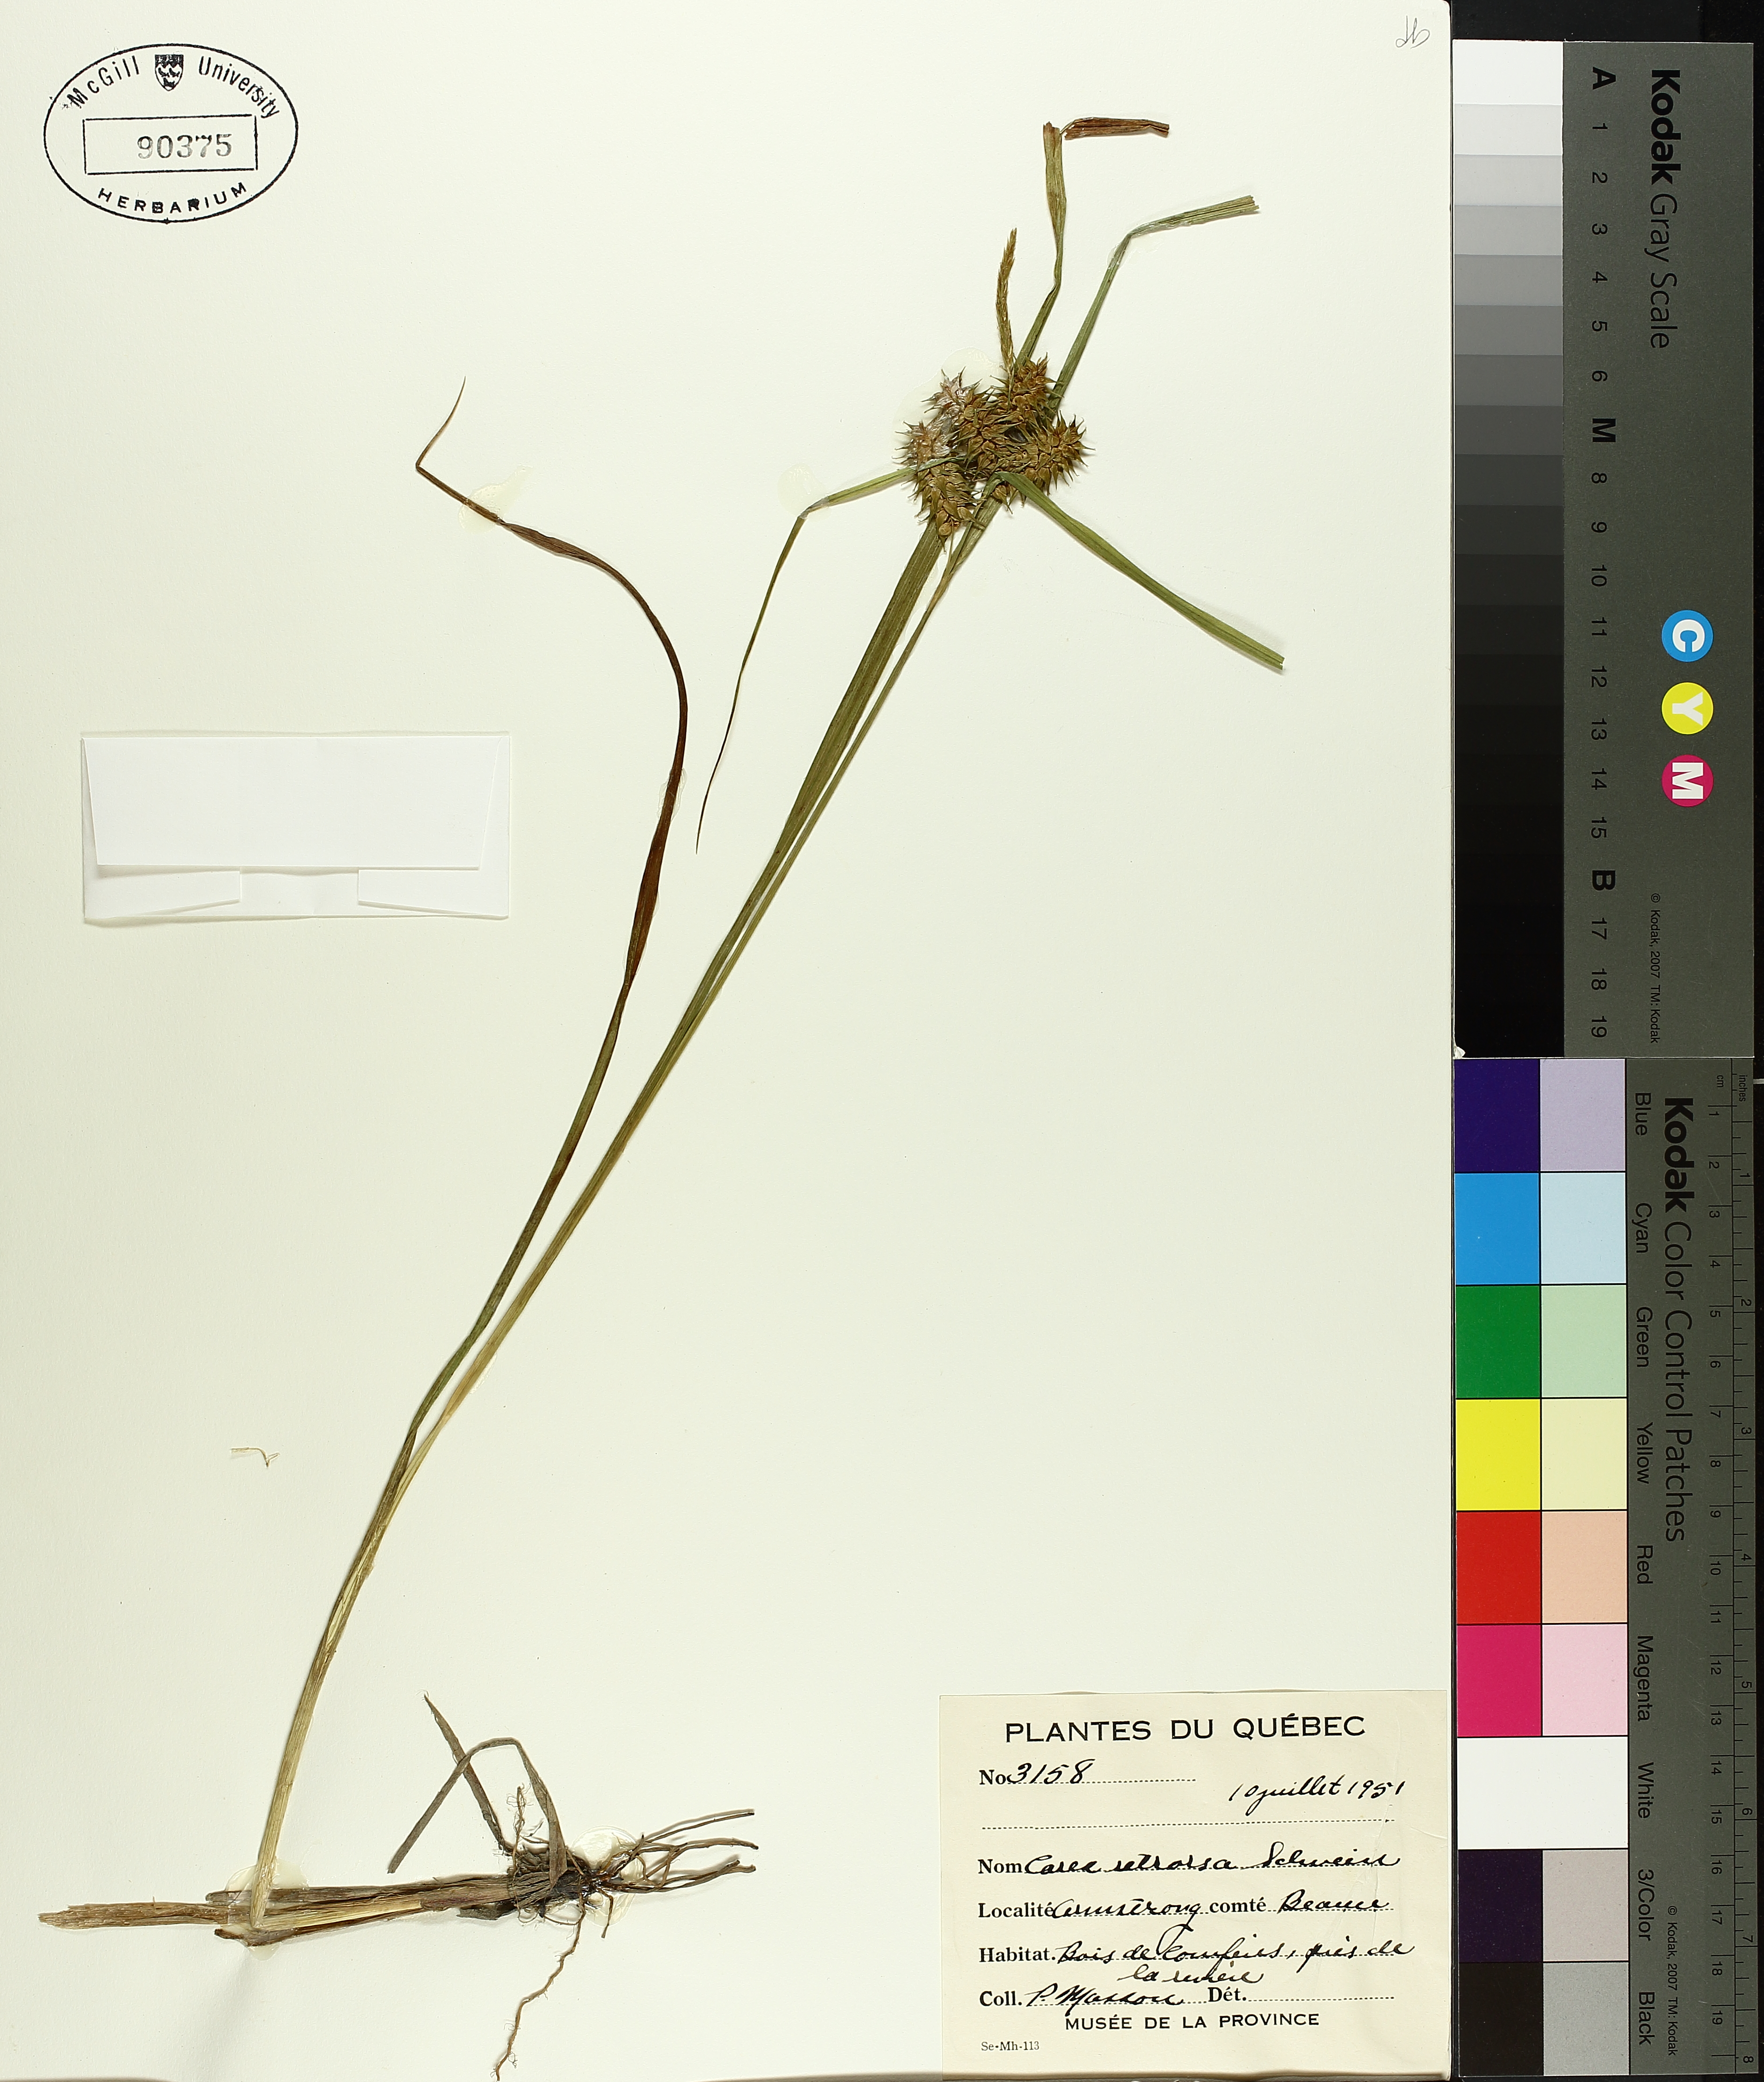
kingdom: Plantae
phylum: Tracheophyta
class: Liliopsida
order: Poales
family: Cyperaceae
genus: Carex
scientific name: Carex retrorsa
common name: Knot-sheath sedge
